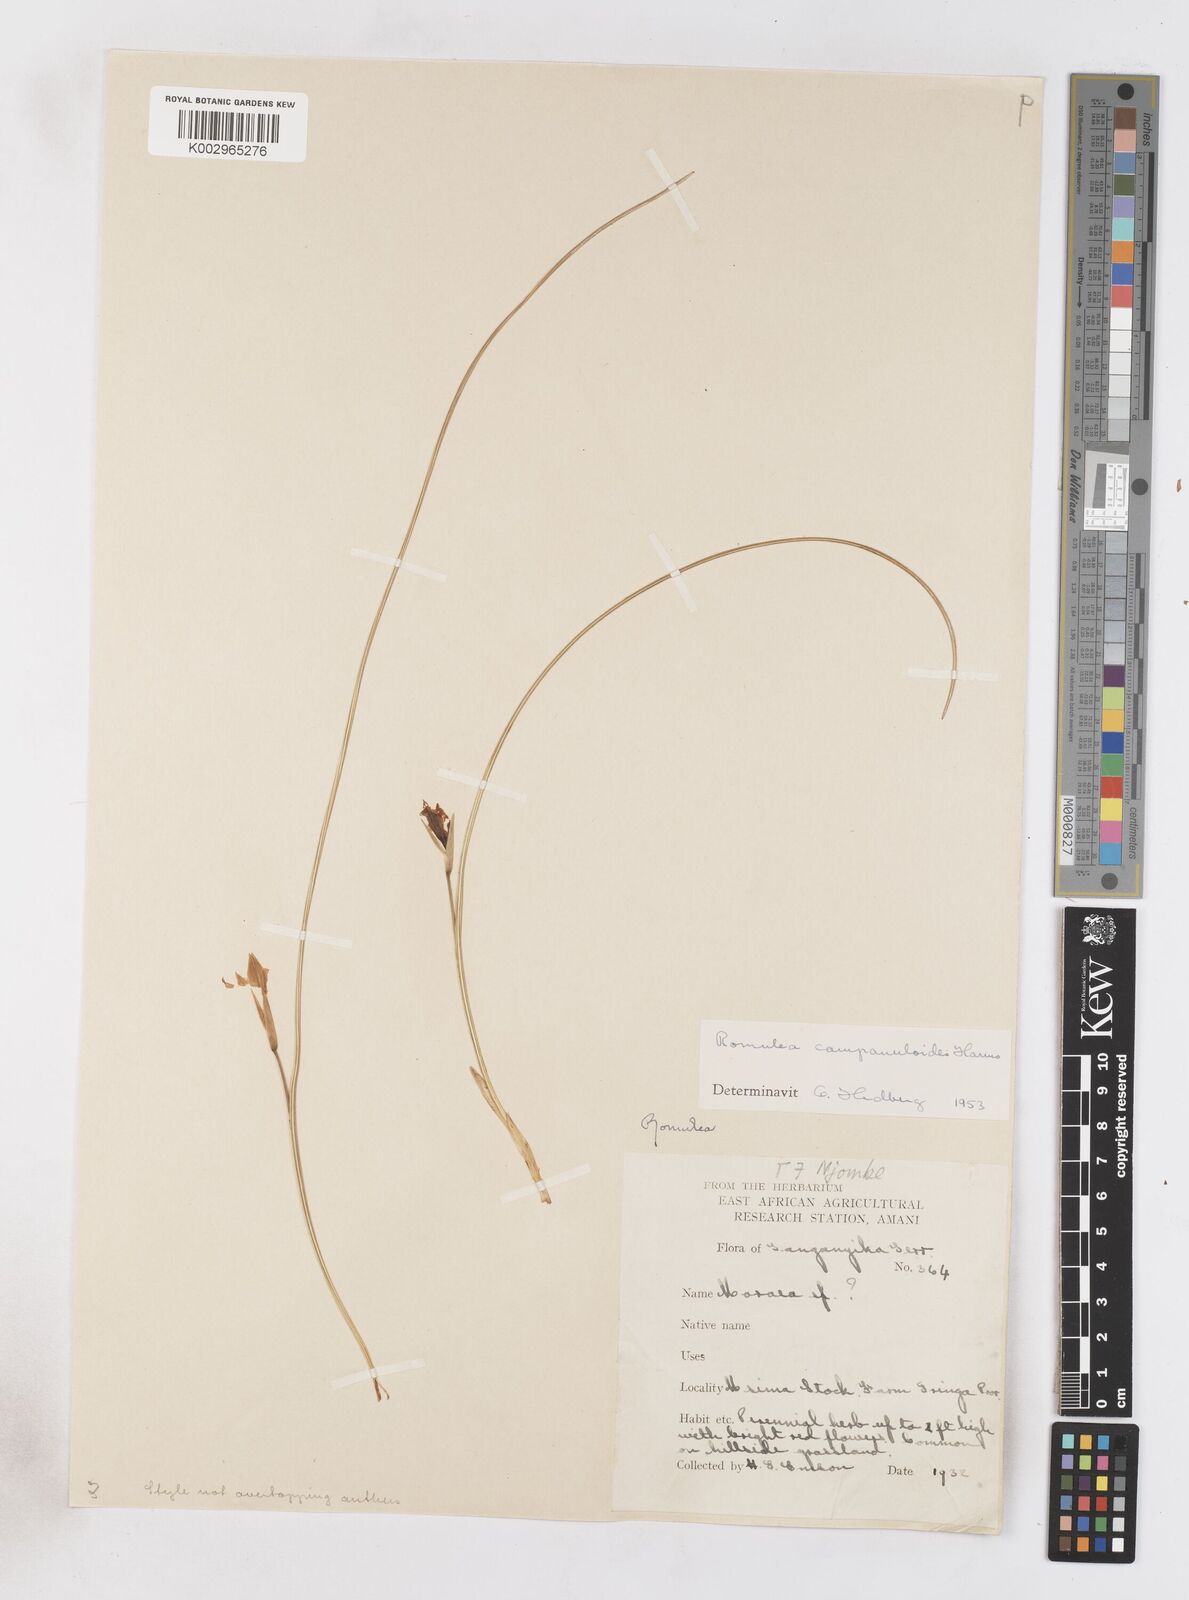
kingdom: Plantae
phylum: Tracheophyta
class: Liliopsida
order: Asparagales
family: Iridaceae
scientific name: Iridaceae
